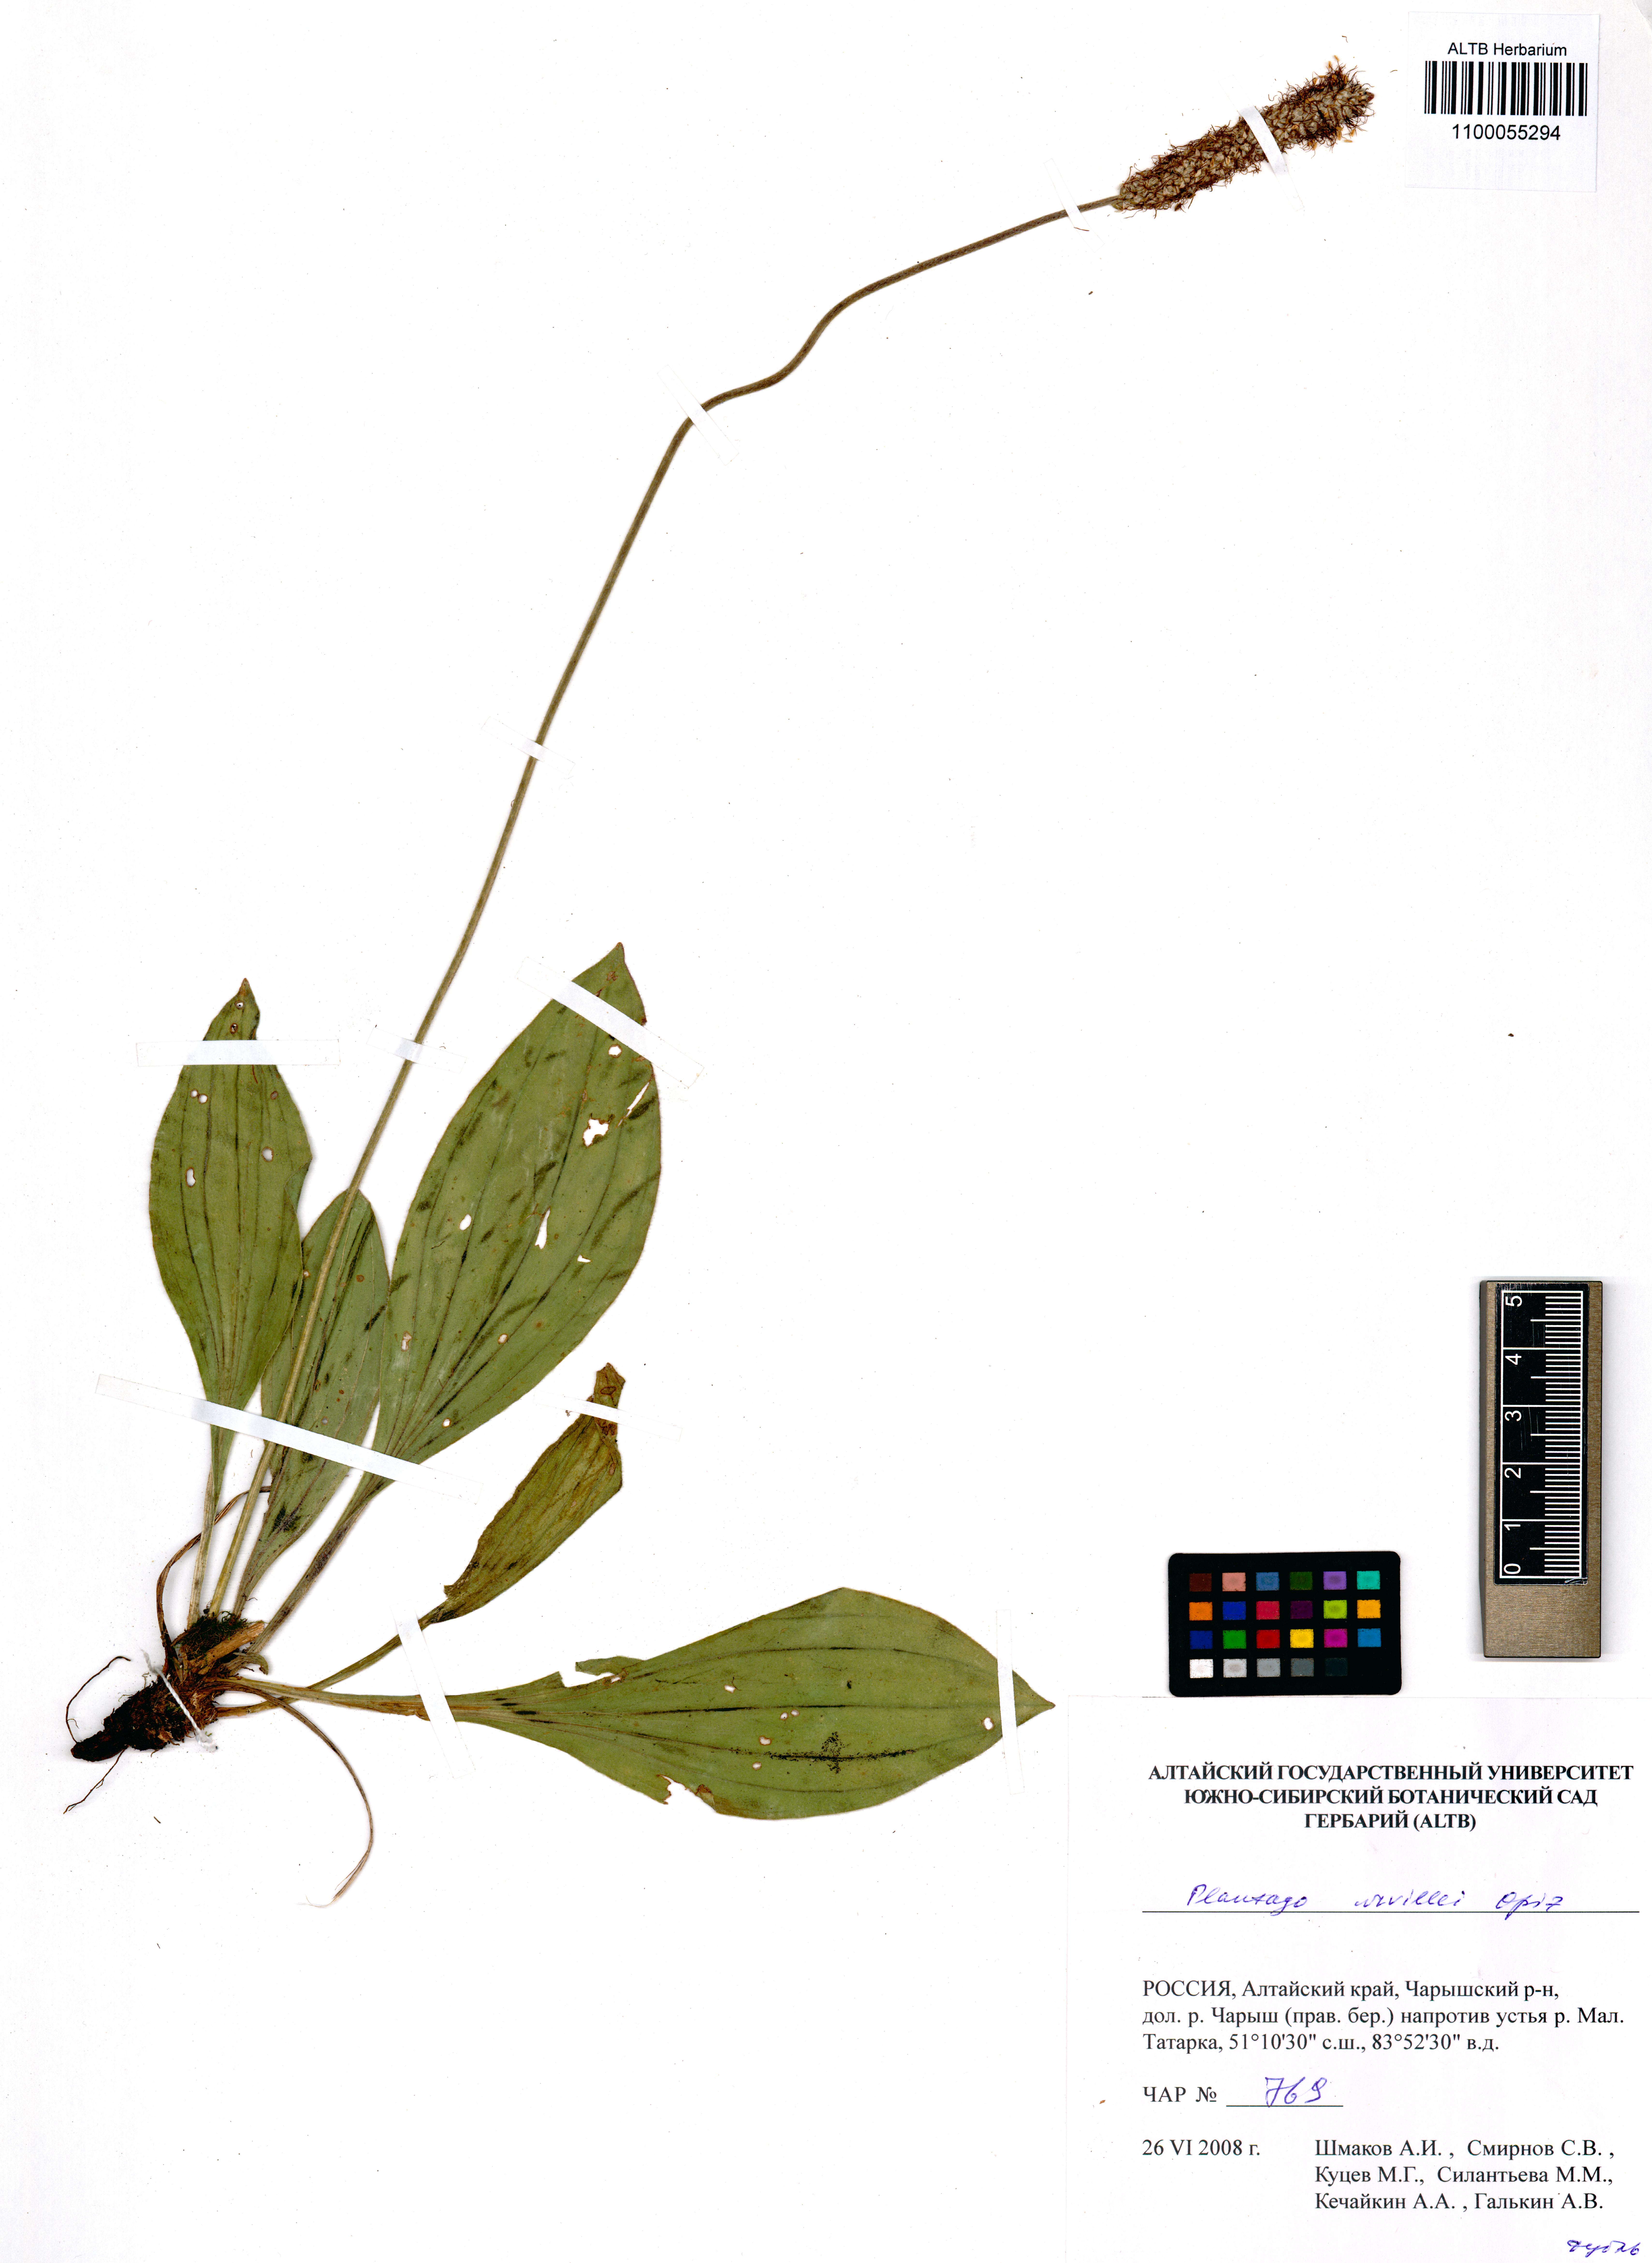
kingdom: Plantae
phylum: Tracheophyta
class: Magnoliopsida
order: Lamiales
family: Plantaginaceae
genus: Plantago
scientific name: Plantago urvillei
